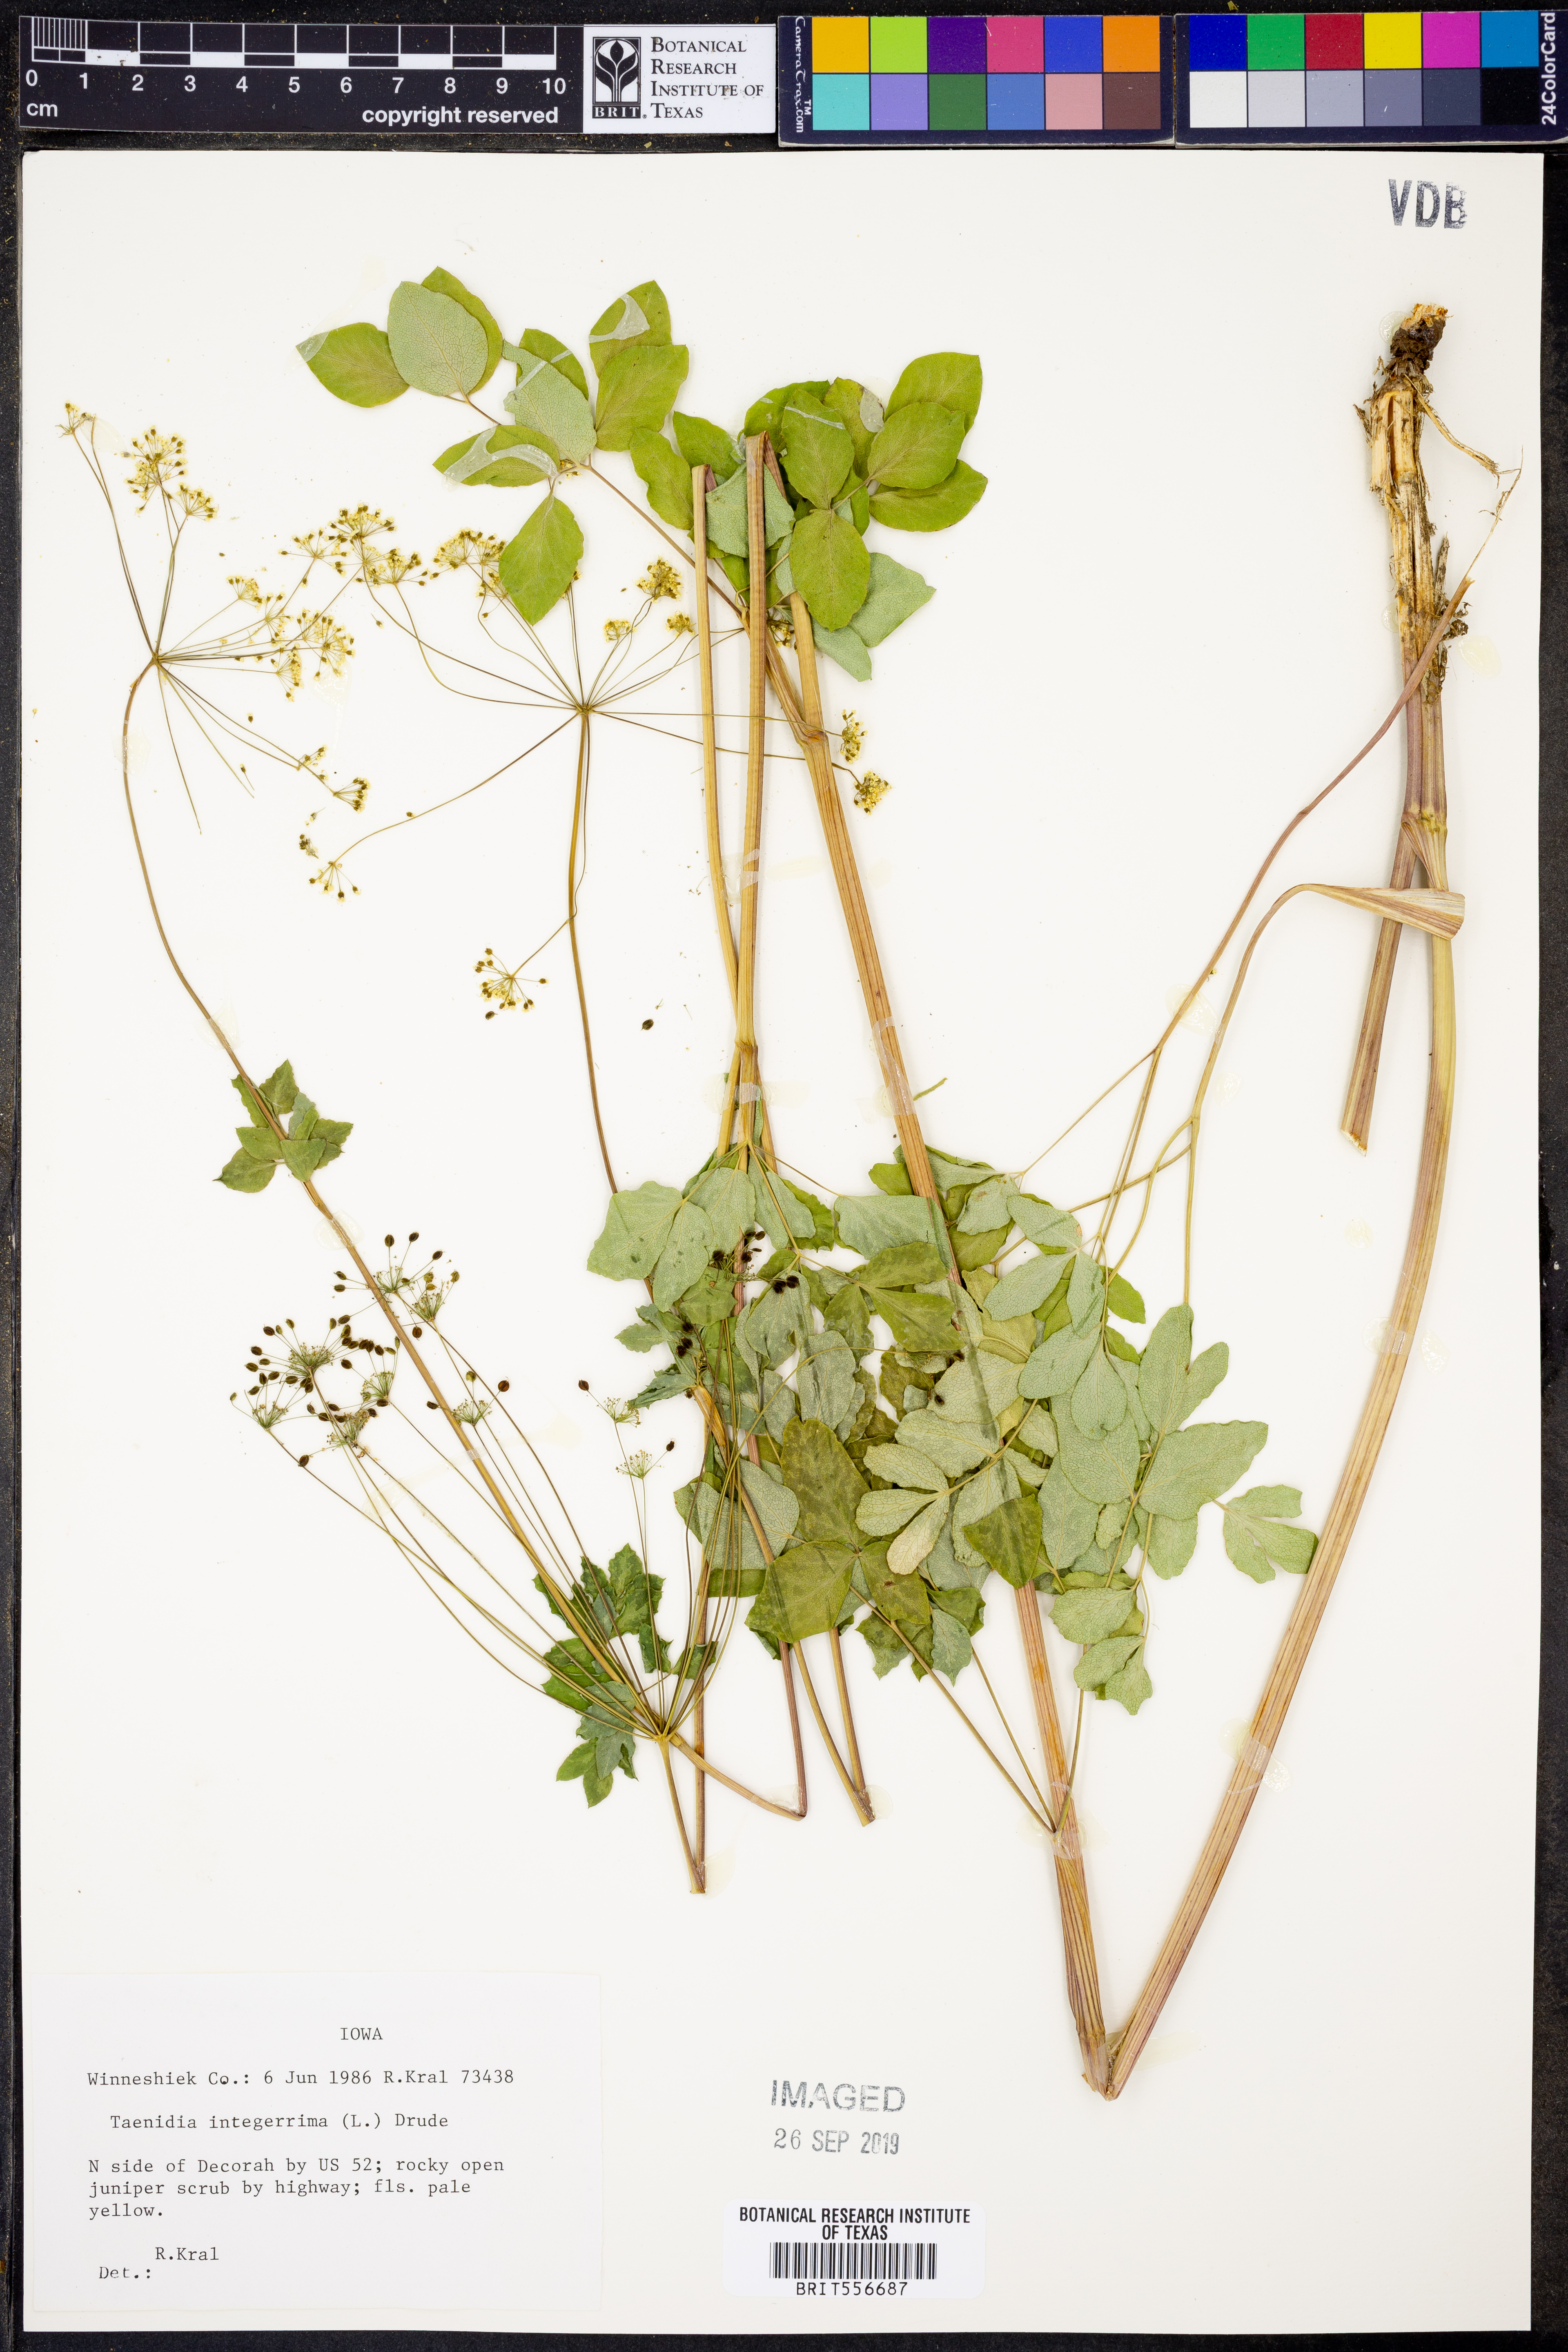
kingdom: Plantae
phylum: Tracheophyta
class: Magnoliopsida
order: Apiales
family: Apiaceae
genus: Taenidia
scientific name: Taenidia integerrima
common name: Golden alexander
